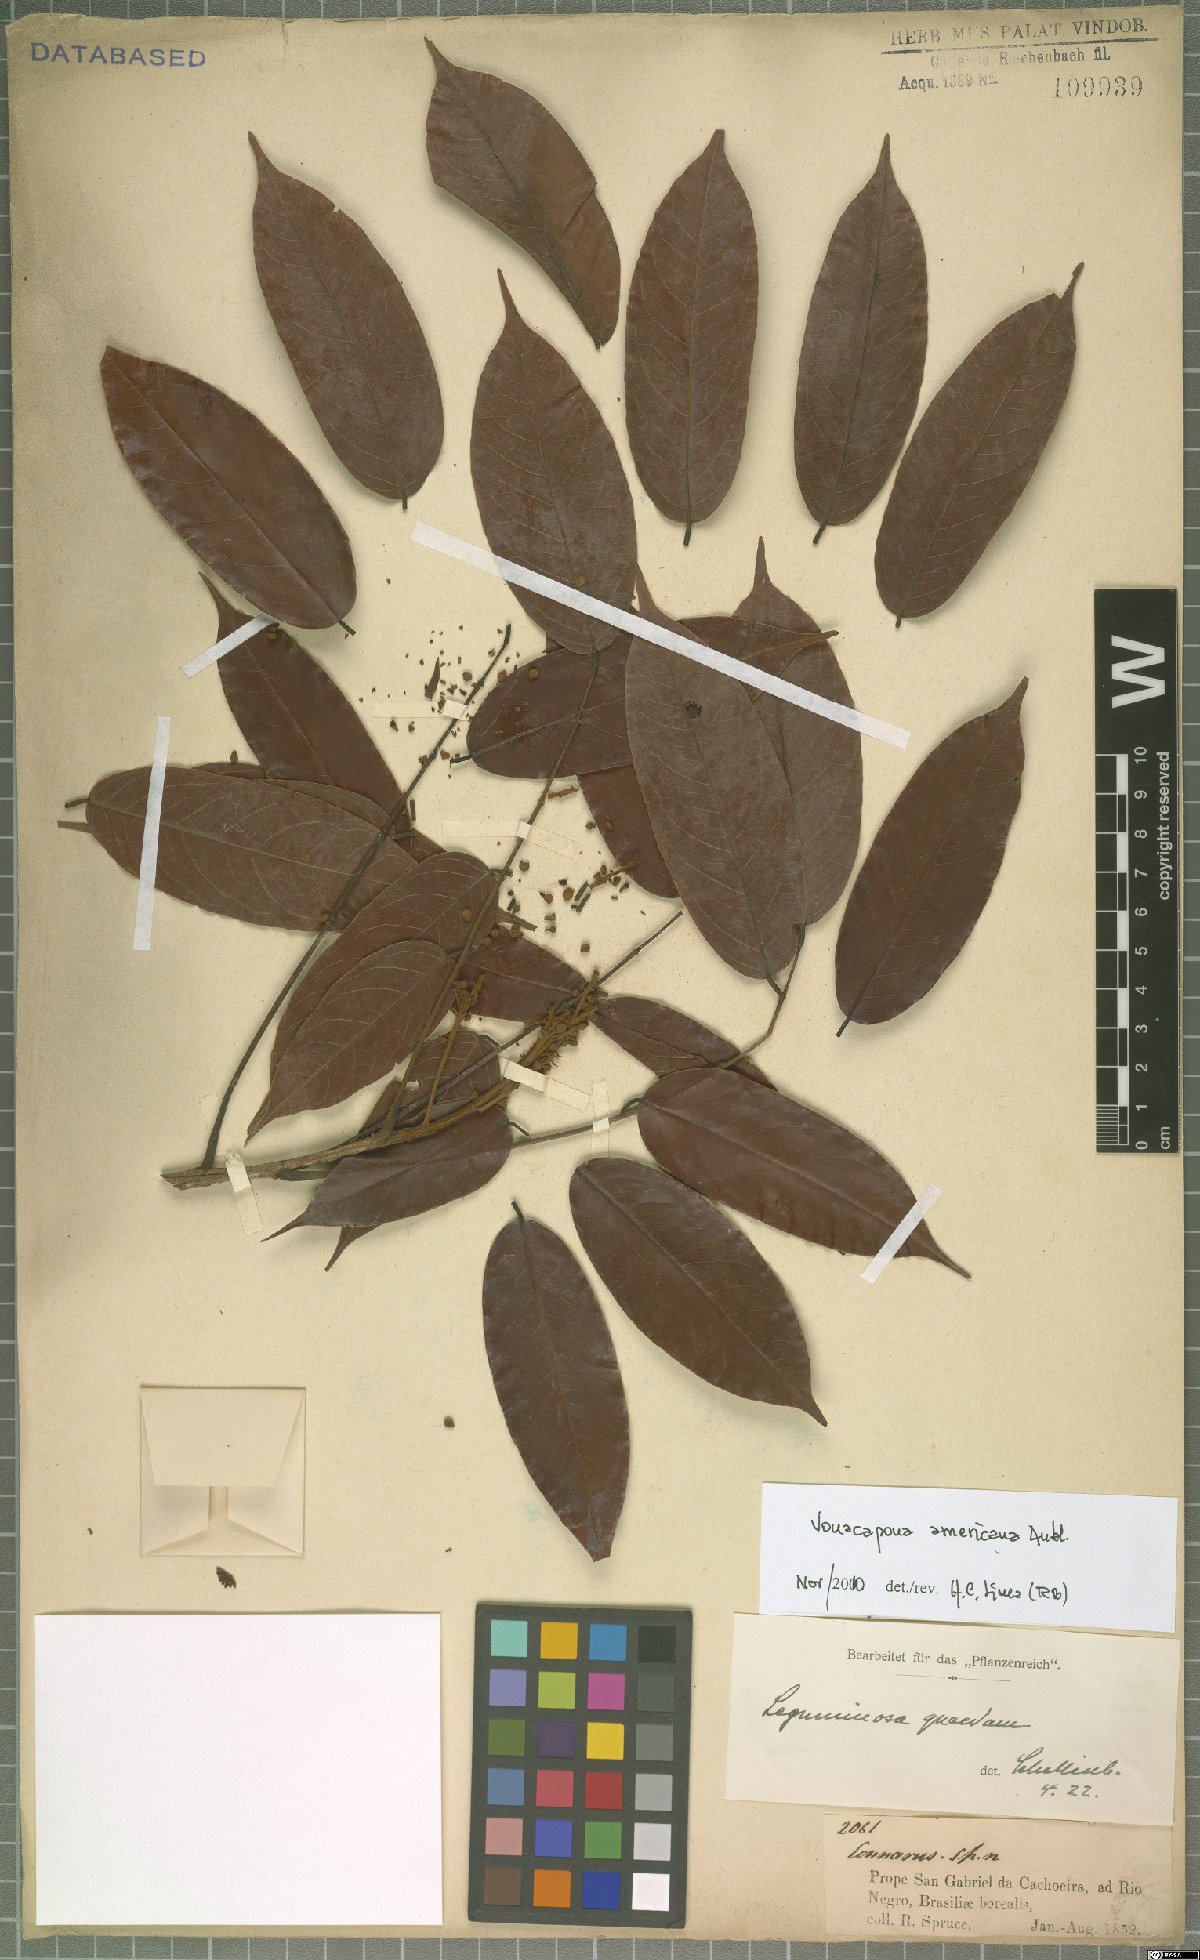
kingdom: Plantae
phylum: Tracheophyta
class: Magnoliopsida
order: Fabales
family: Fabaceae
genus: Vouacapoua
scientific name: Vouacapoua americana
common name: Partridgewood
